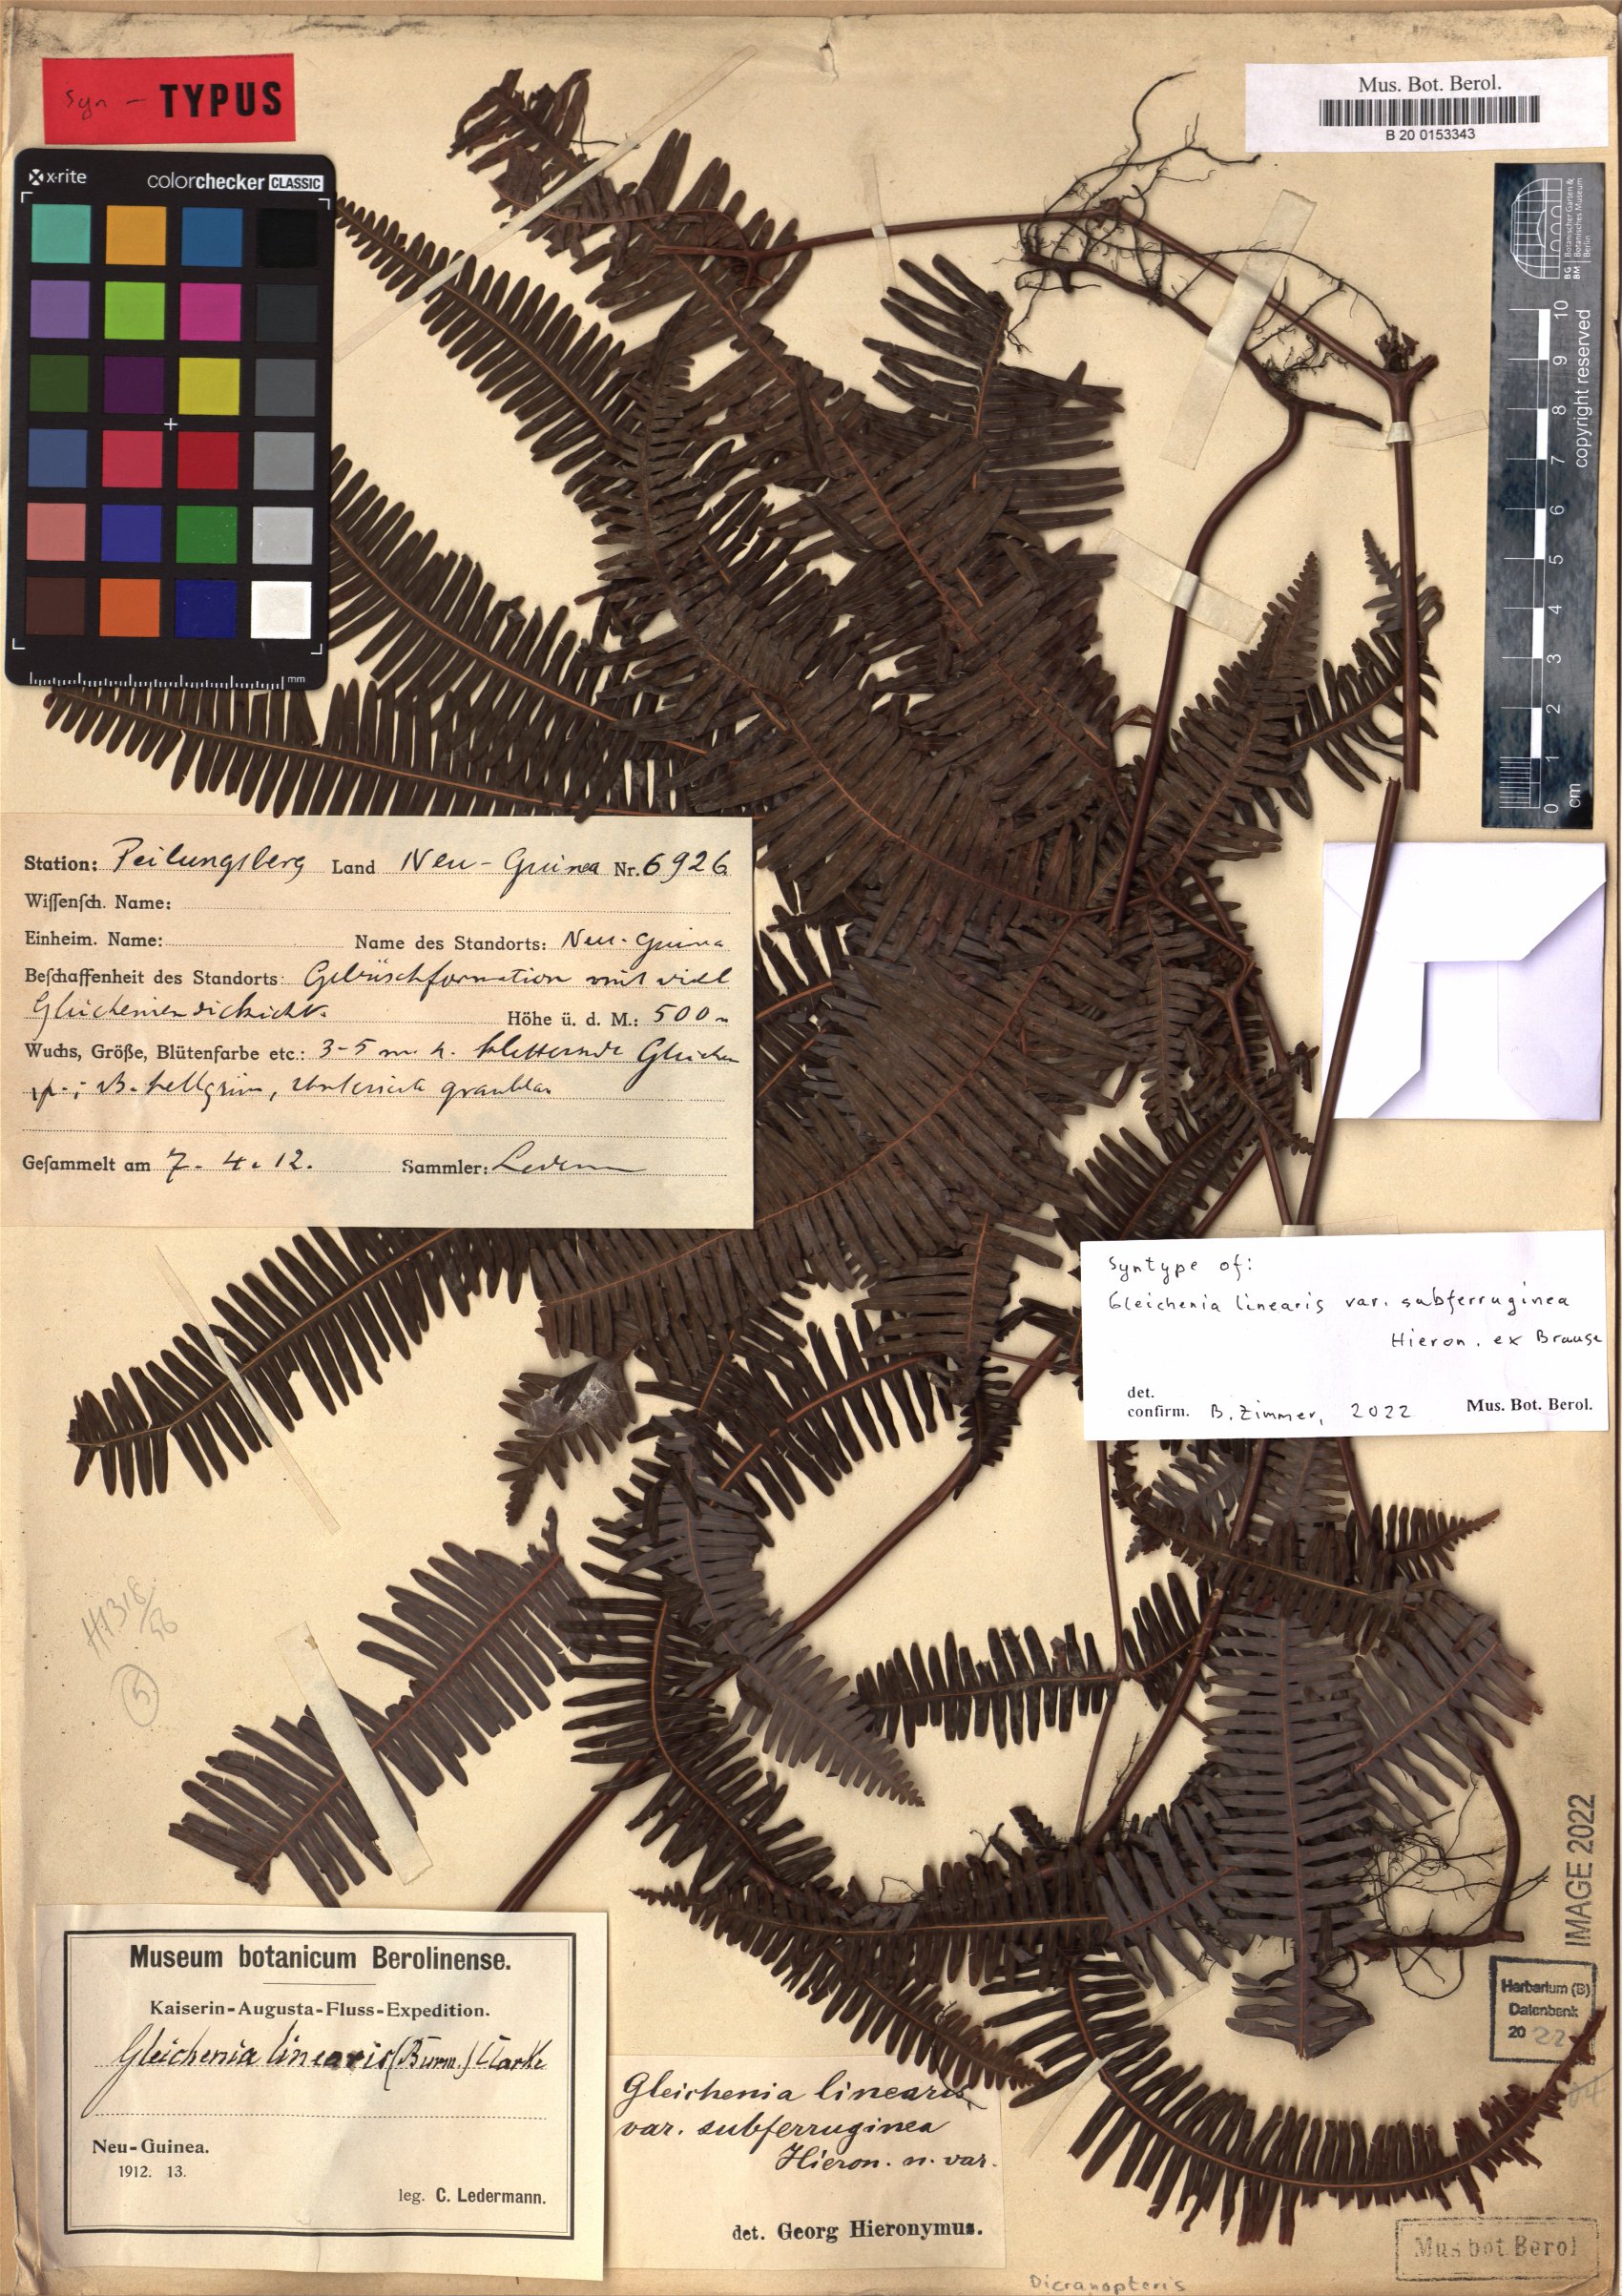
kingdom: Plantae
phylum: Tracheophyta
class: Polypodiopsida
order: Gleicheniales
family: Gleicheniaceae
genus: Dicranopteris
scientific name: Dicranopteris linearis
